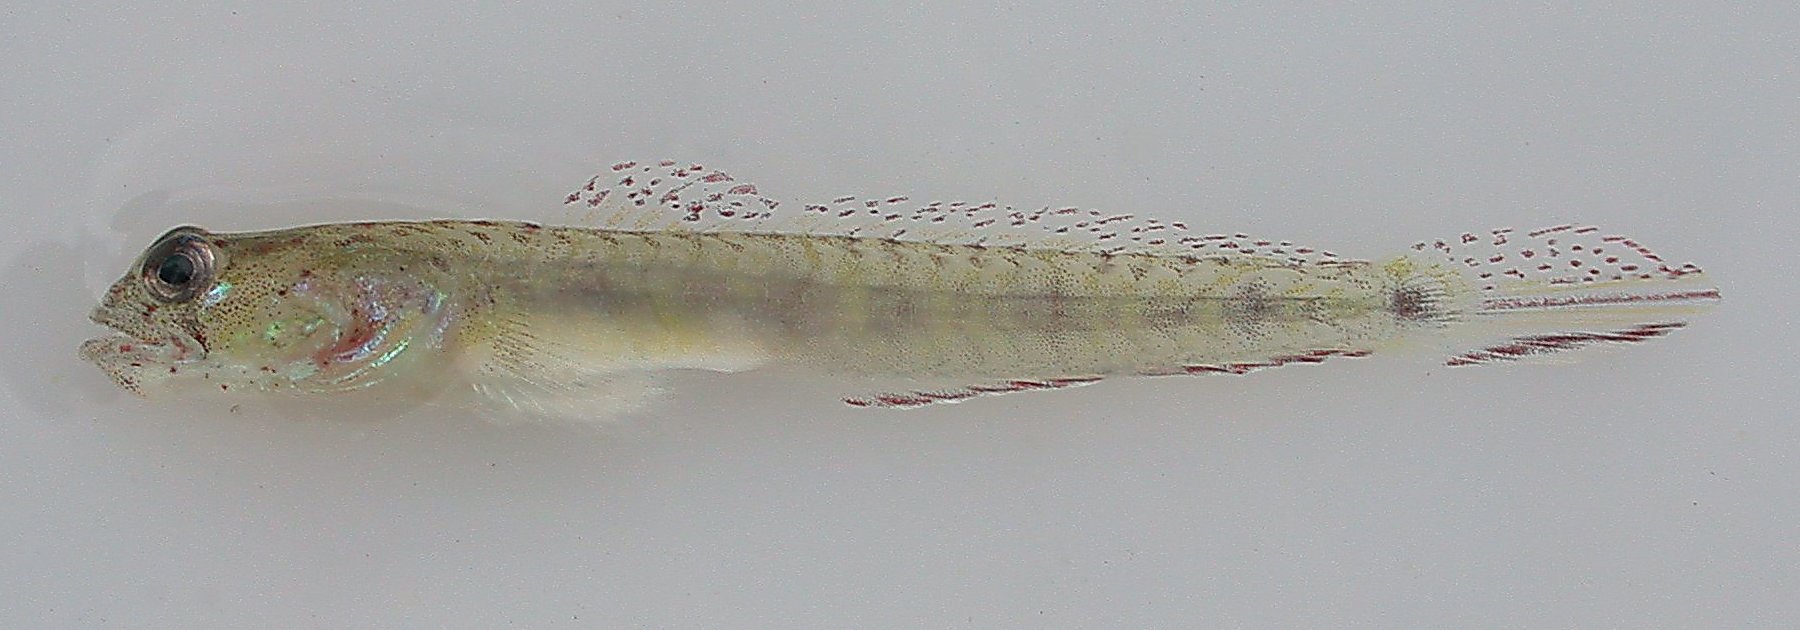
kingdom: Animalia
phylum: Chordata
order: Perciformes
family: Gobiidae
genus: Croilia
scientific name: Croilia mossambica
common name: Burrowing goby
